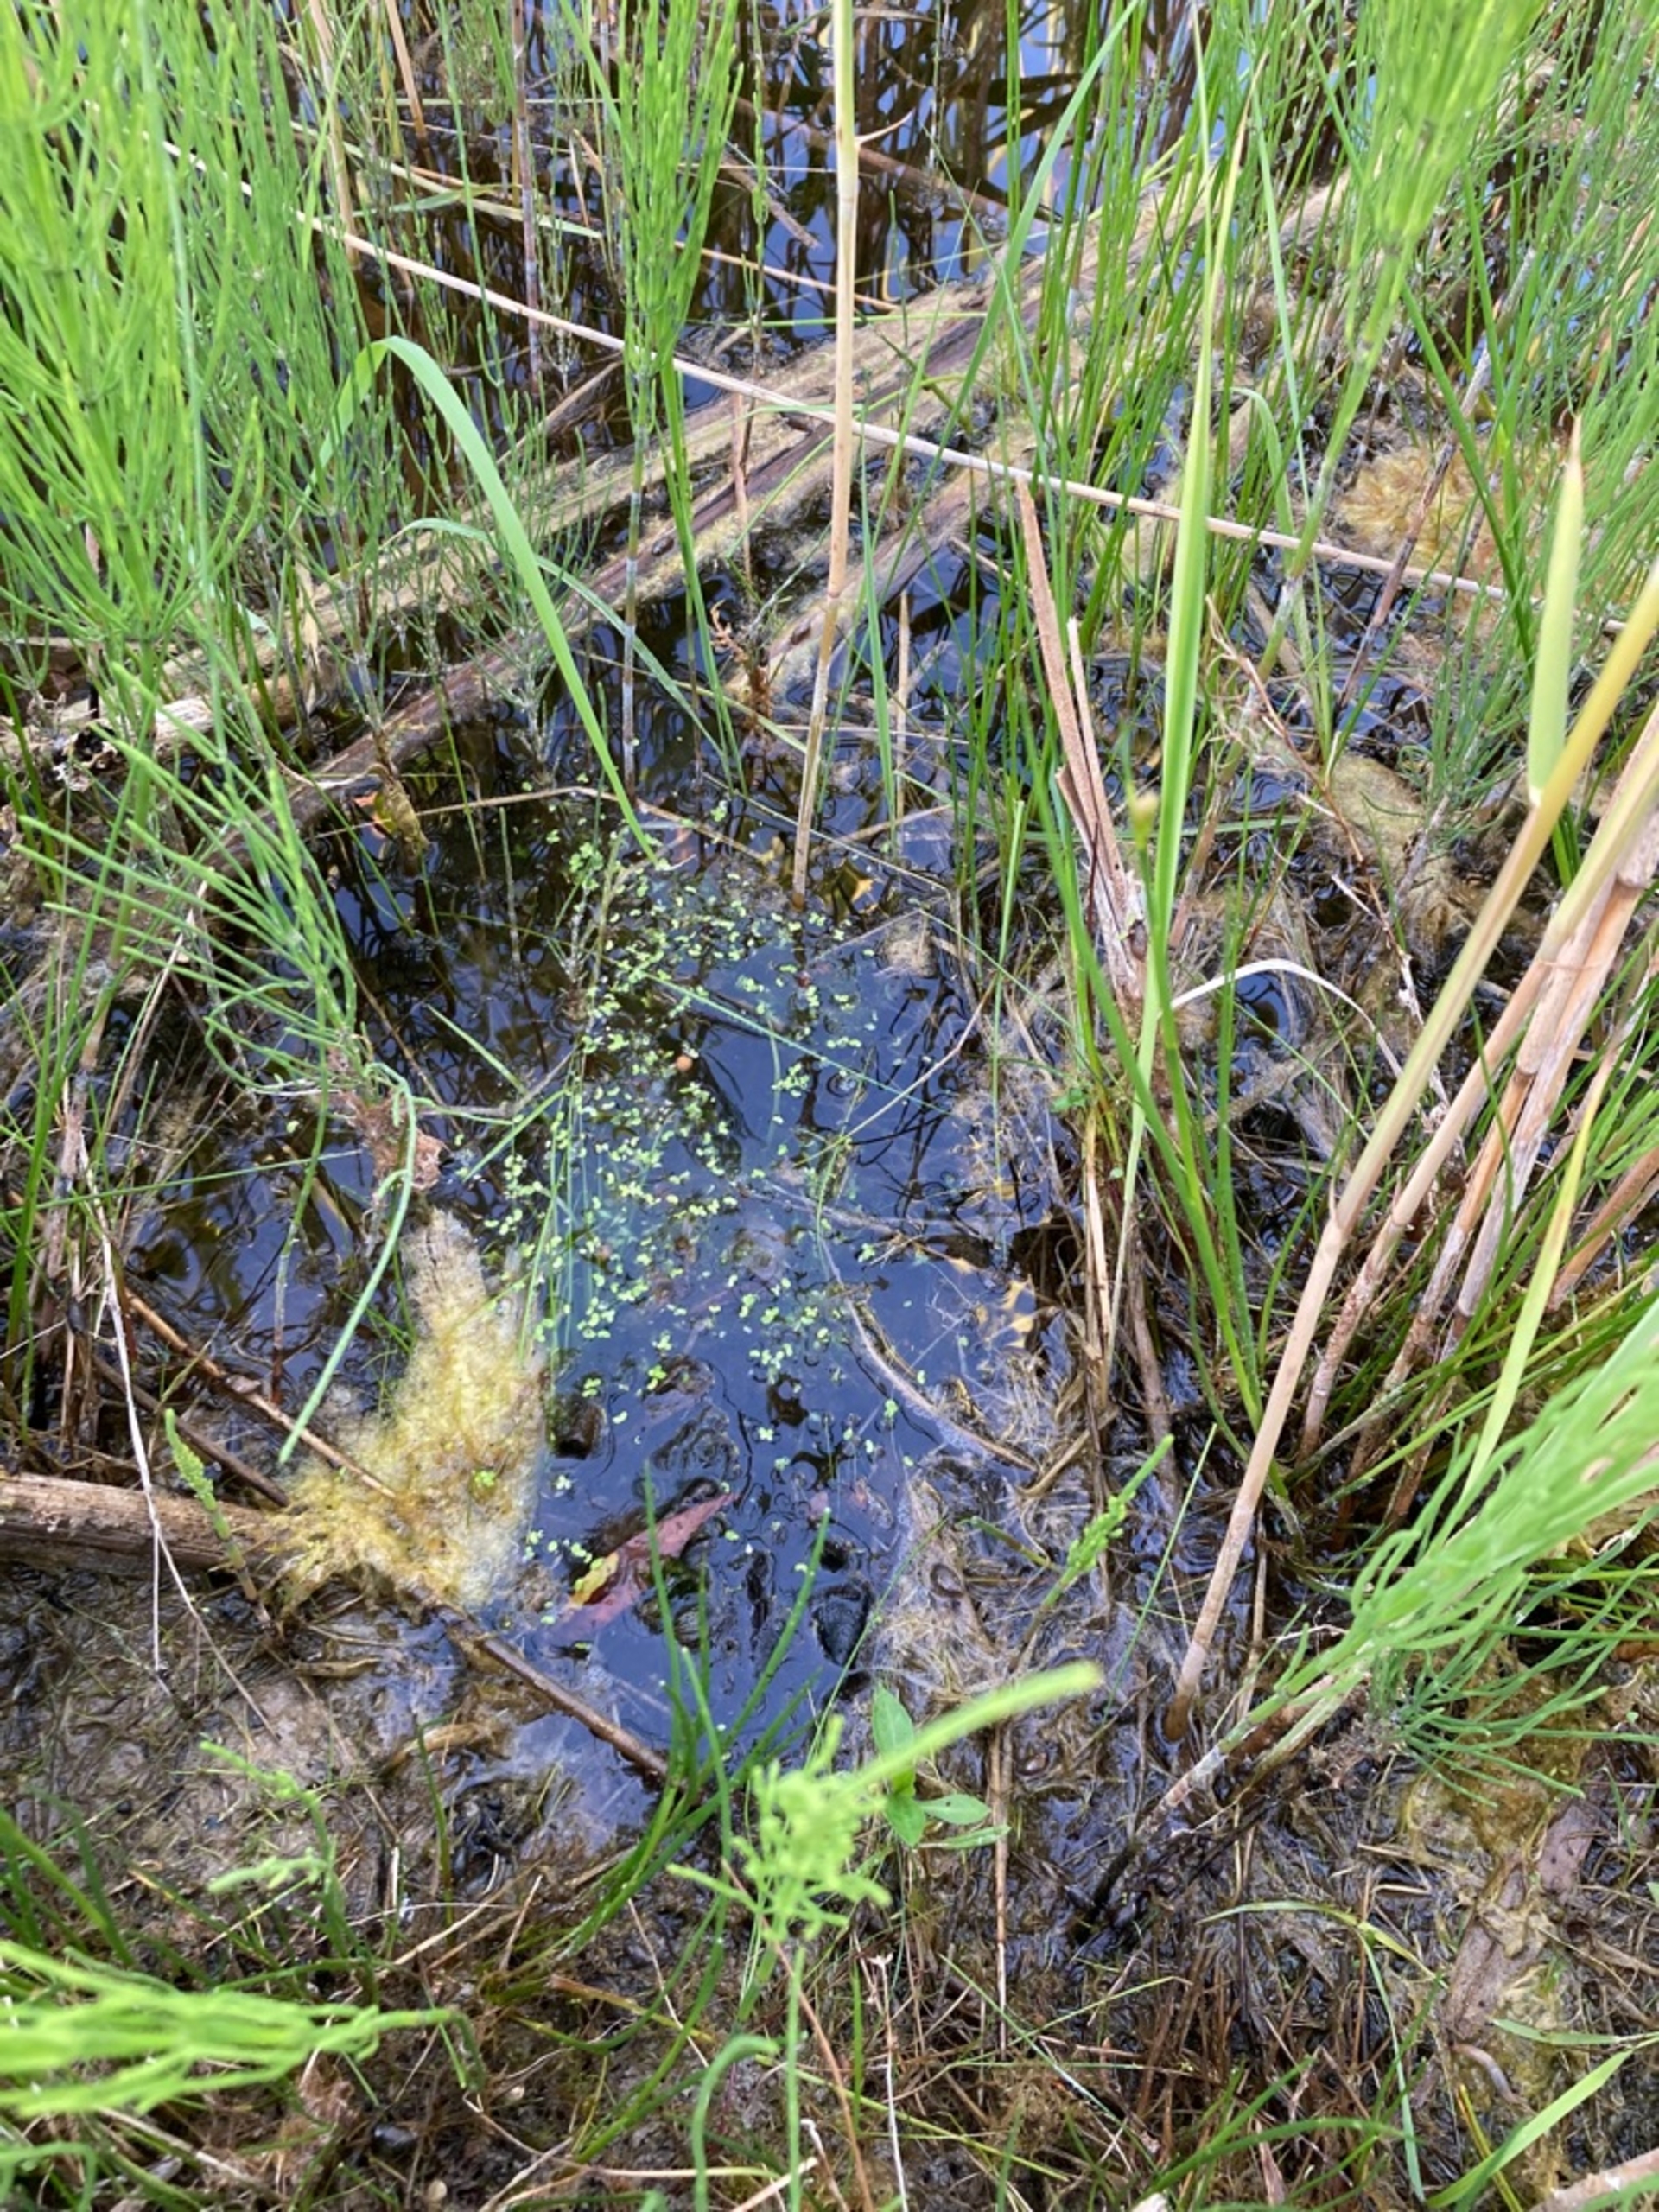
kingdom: Plantae
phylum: Tracheophyta
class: Liliopsida
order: Alismatales
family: Araceae
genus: Lemna
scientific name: Lemna minor
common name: Liden andemad
